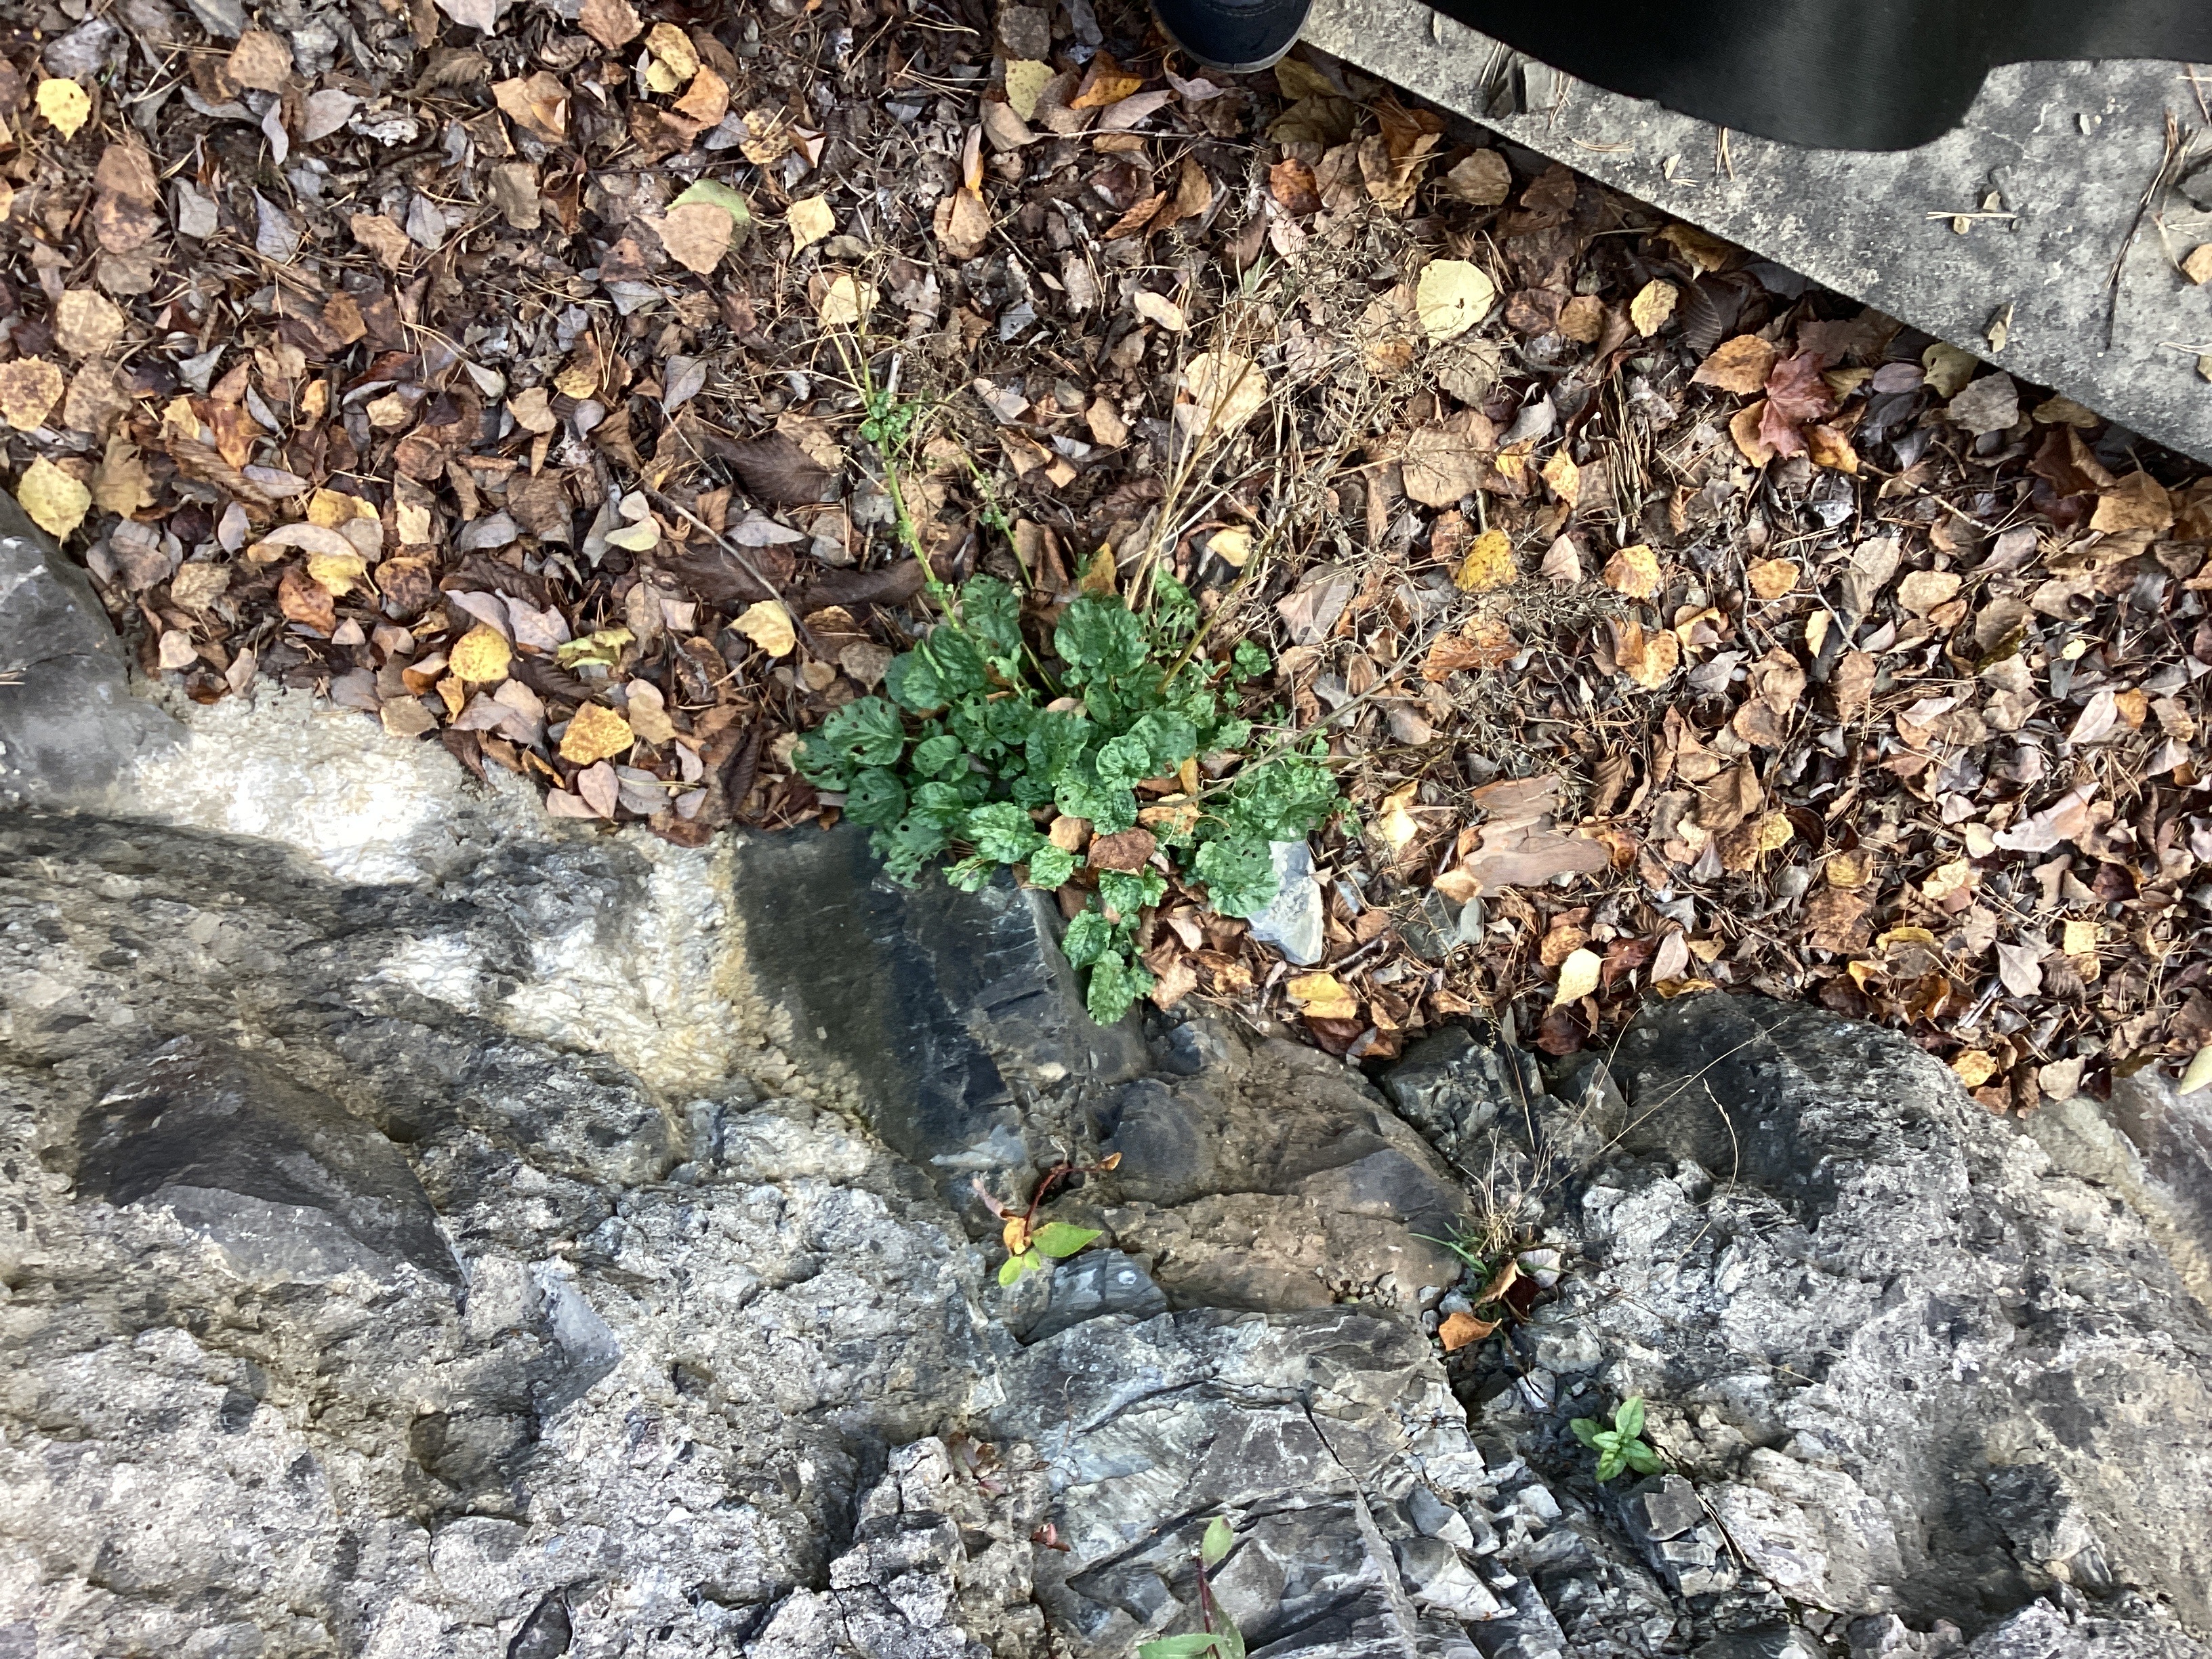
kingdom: Plantae
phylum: Tracheophyta
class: Magnoliopsida
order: Brassicales
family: Brassicaceae
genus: Barbarea
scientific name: Barbarea vulgaris
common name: vinterkarse
